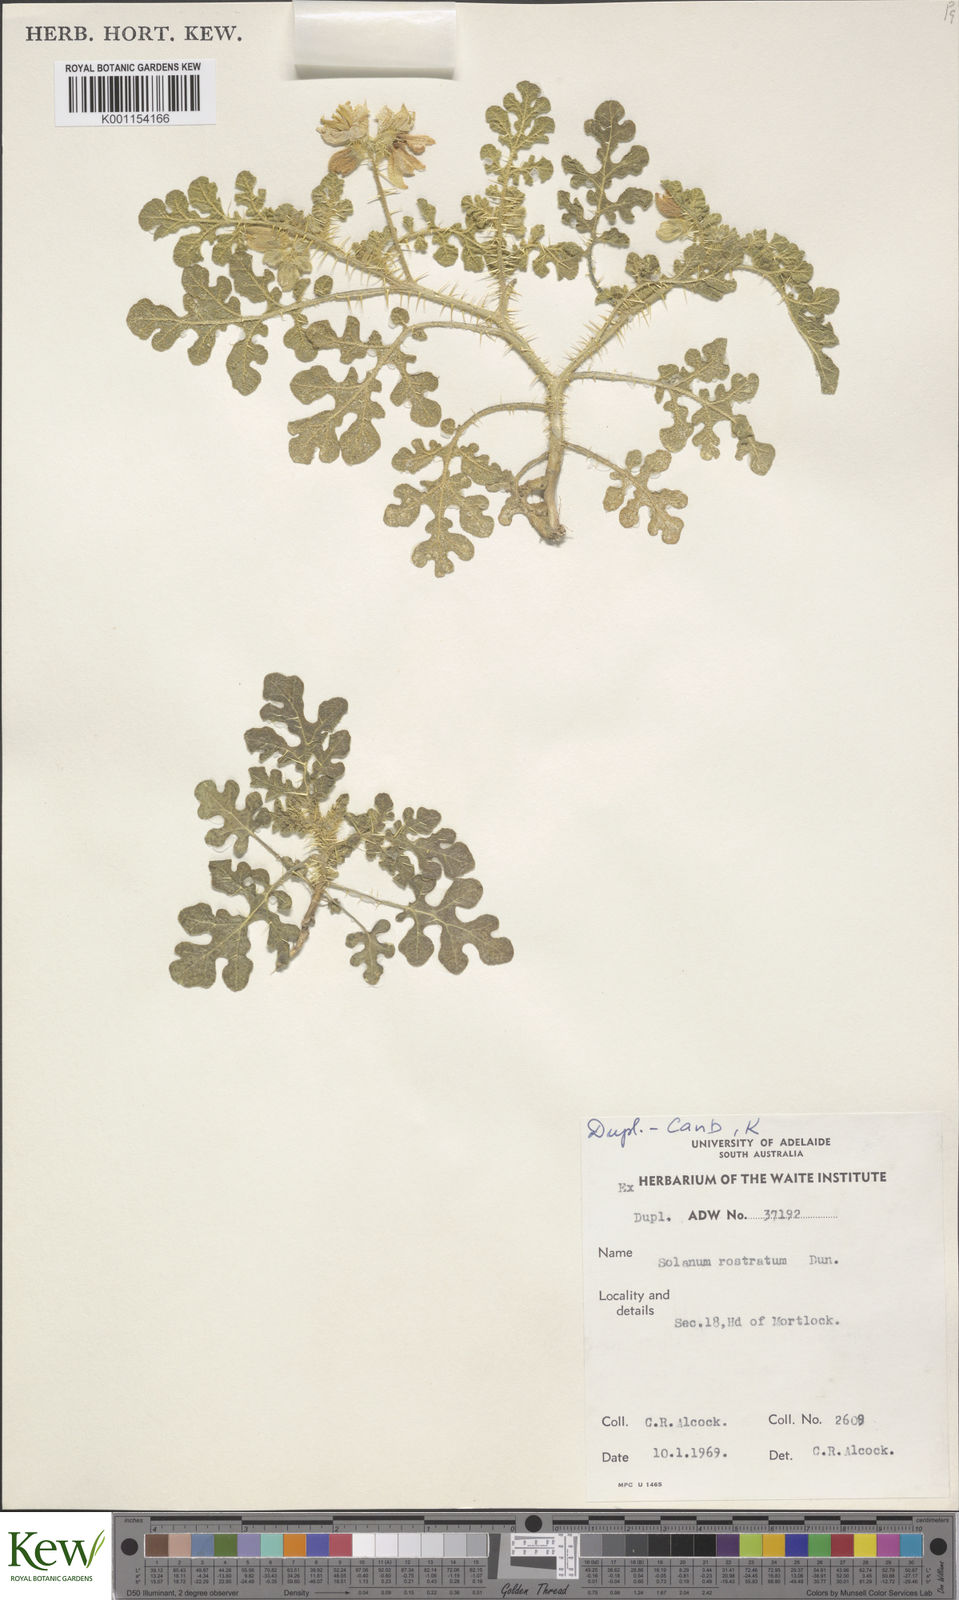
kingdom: Plantae
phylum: Tracheophyta
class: Magnoliopsida
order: Solanales
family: Solanaceae
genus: Solanum
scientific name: Solanum angustifolium
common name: Buffalobur nightshade
